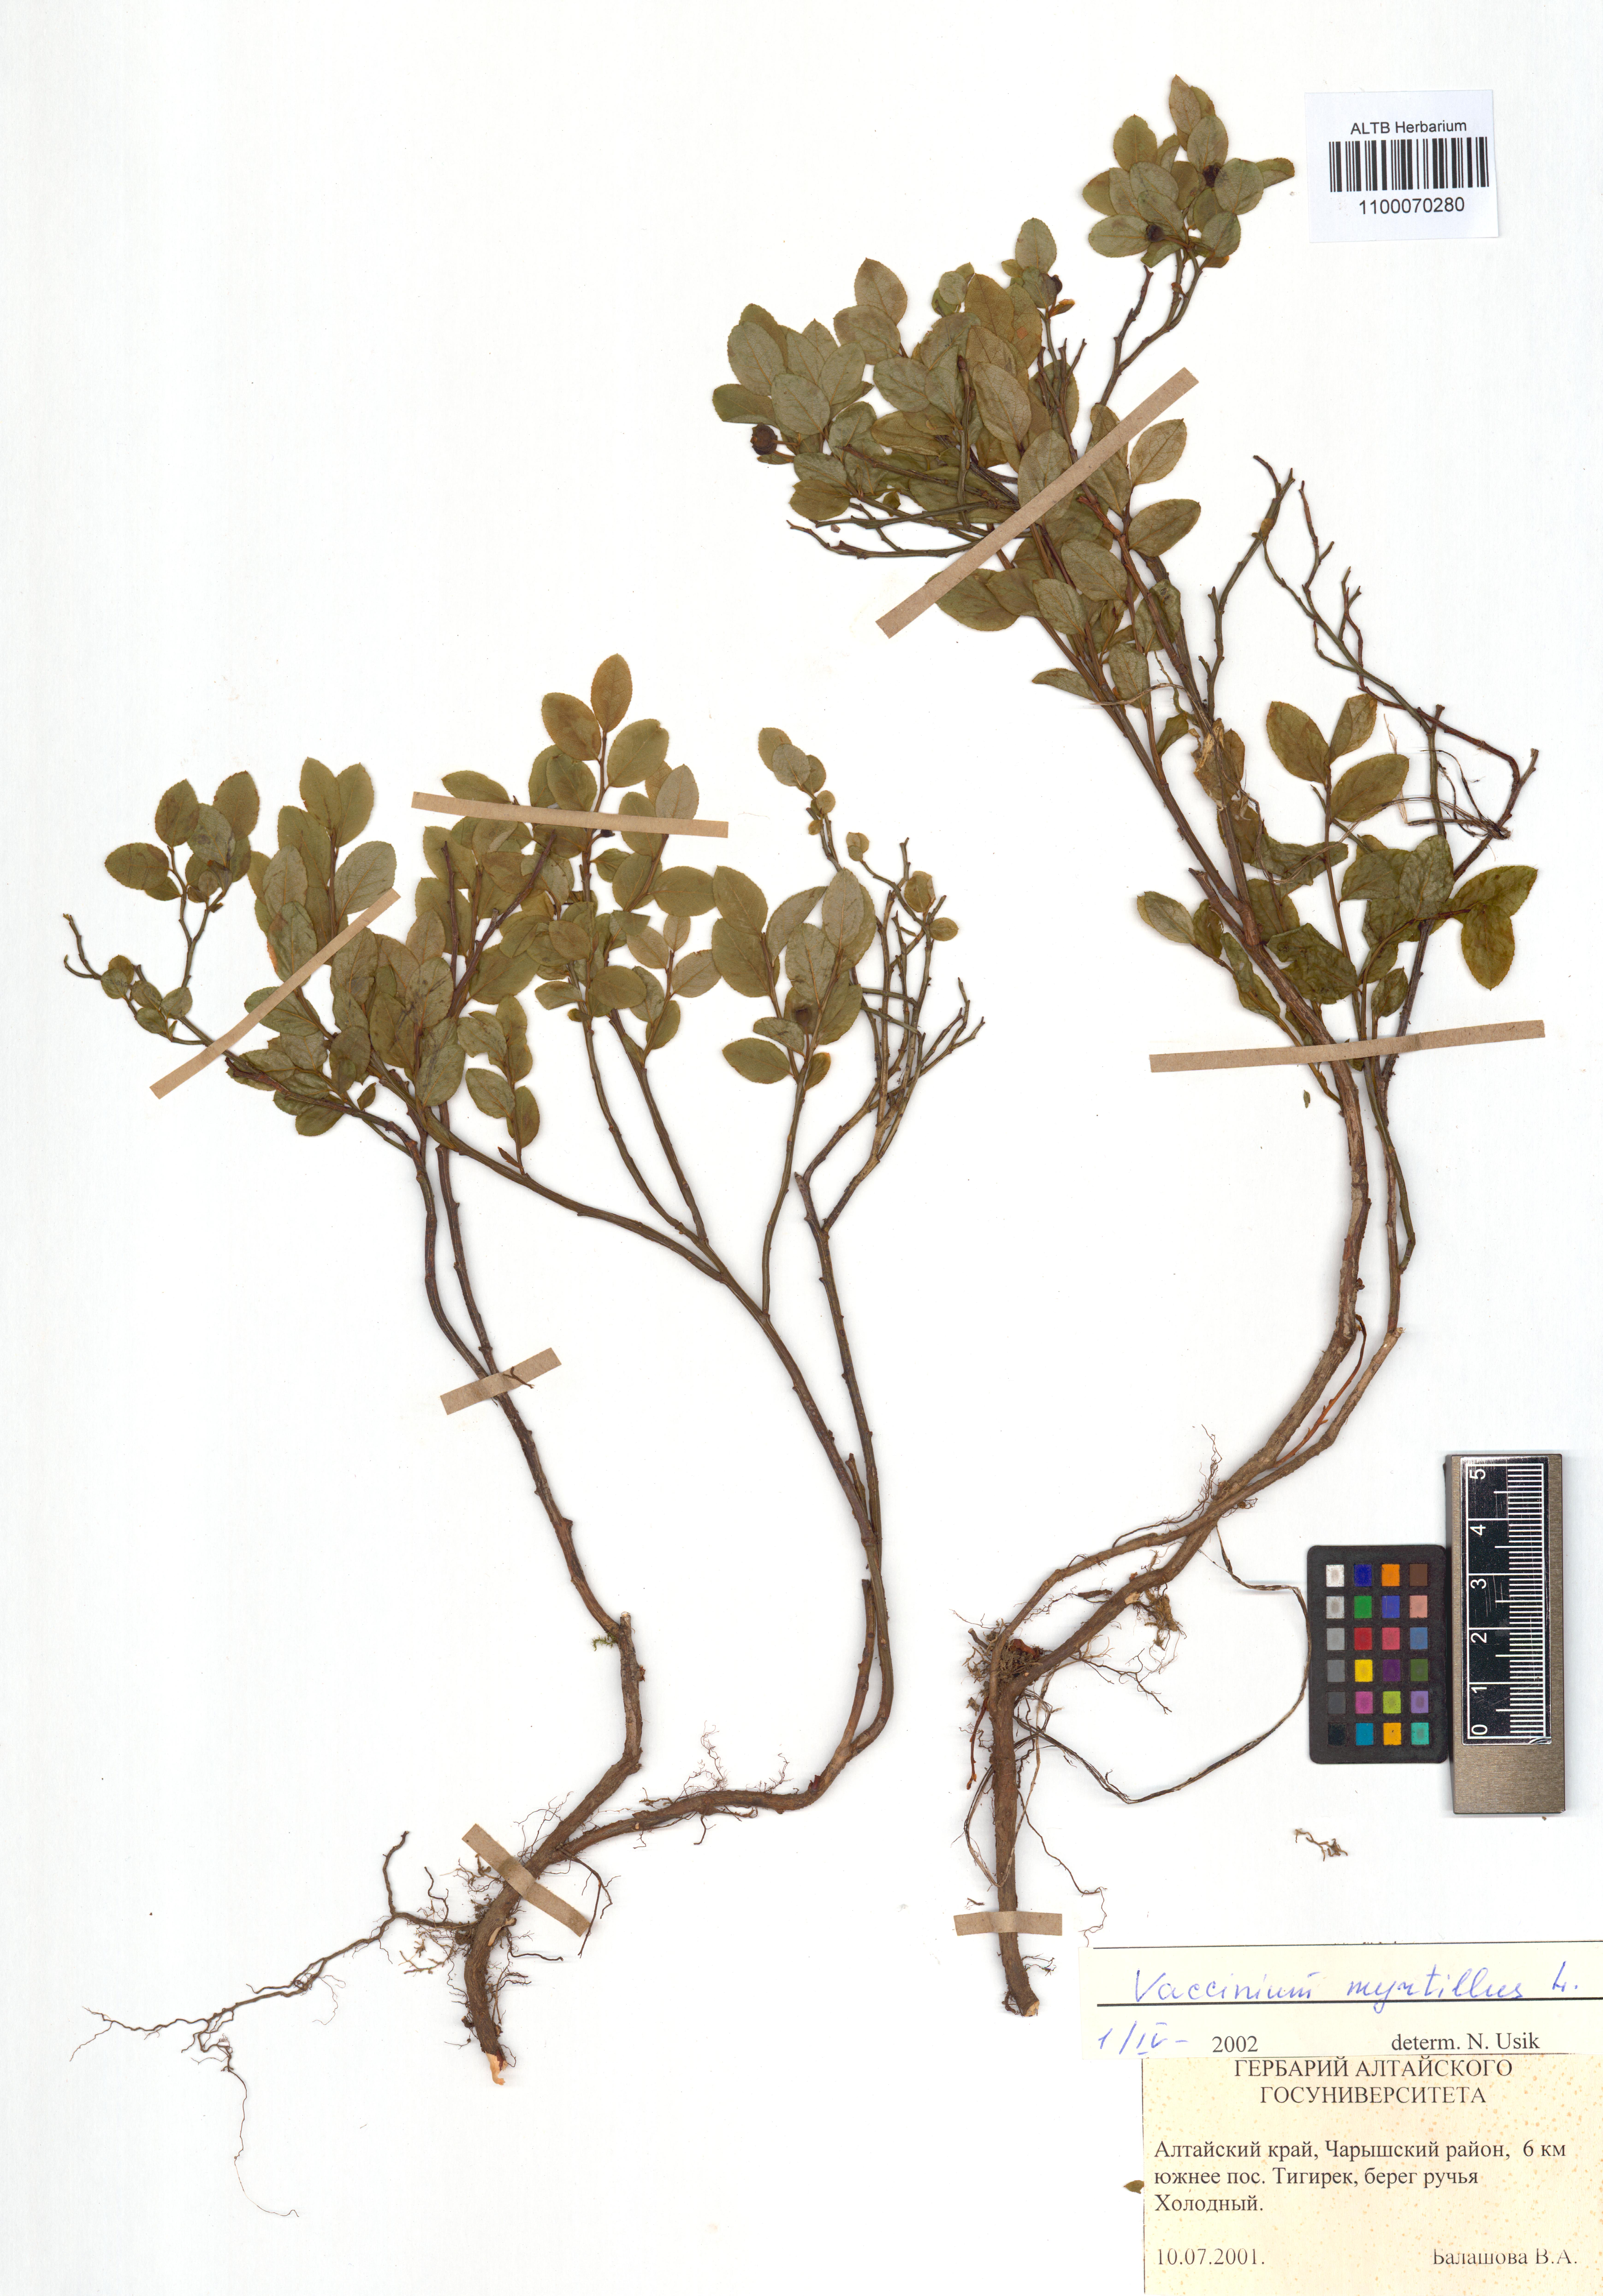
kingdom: Plantae
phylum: Tracheophyta
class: Magnoliopsida
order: Ericales
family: Ericaceae
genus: Vaccinium
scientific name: Vaccinium myrtillus
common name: Bilberry
